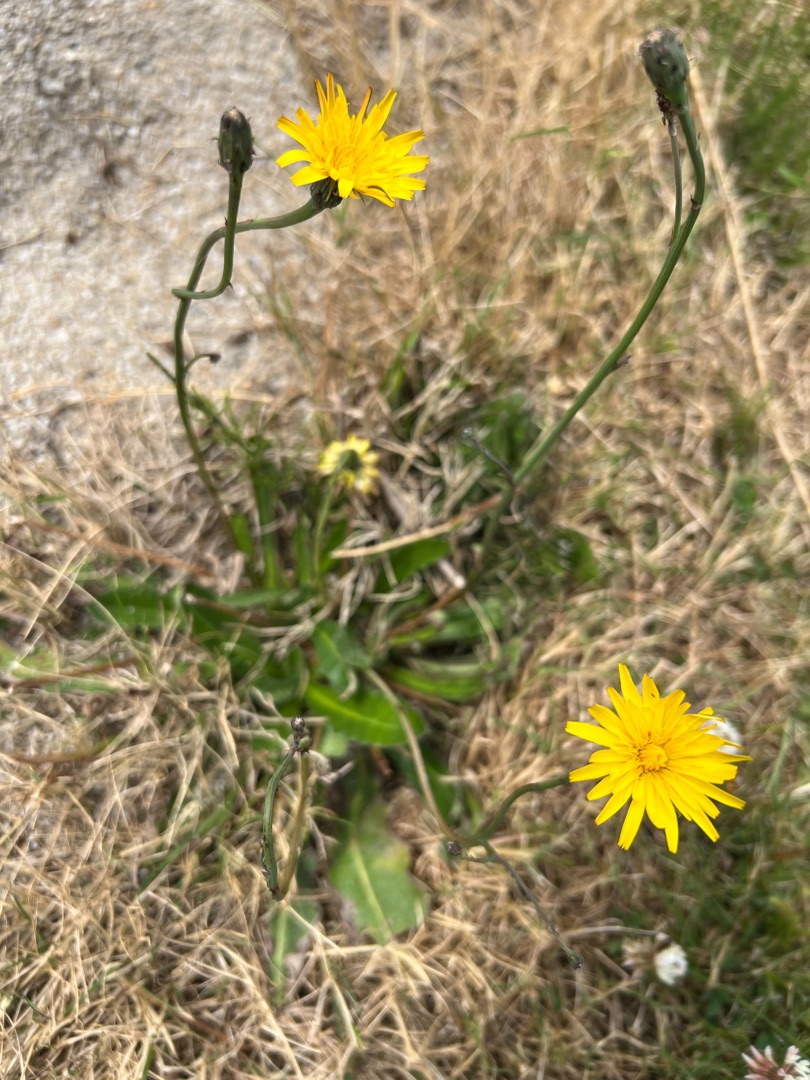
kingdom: Plantae
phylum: Tracheophyta
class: Magnoliopsida
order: Asterales
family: Asteraceae
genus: Hypochaeris
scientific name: Hypochaeris radicata
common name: Almindelig kongepen
